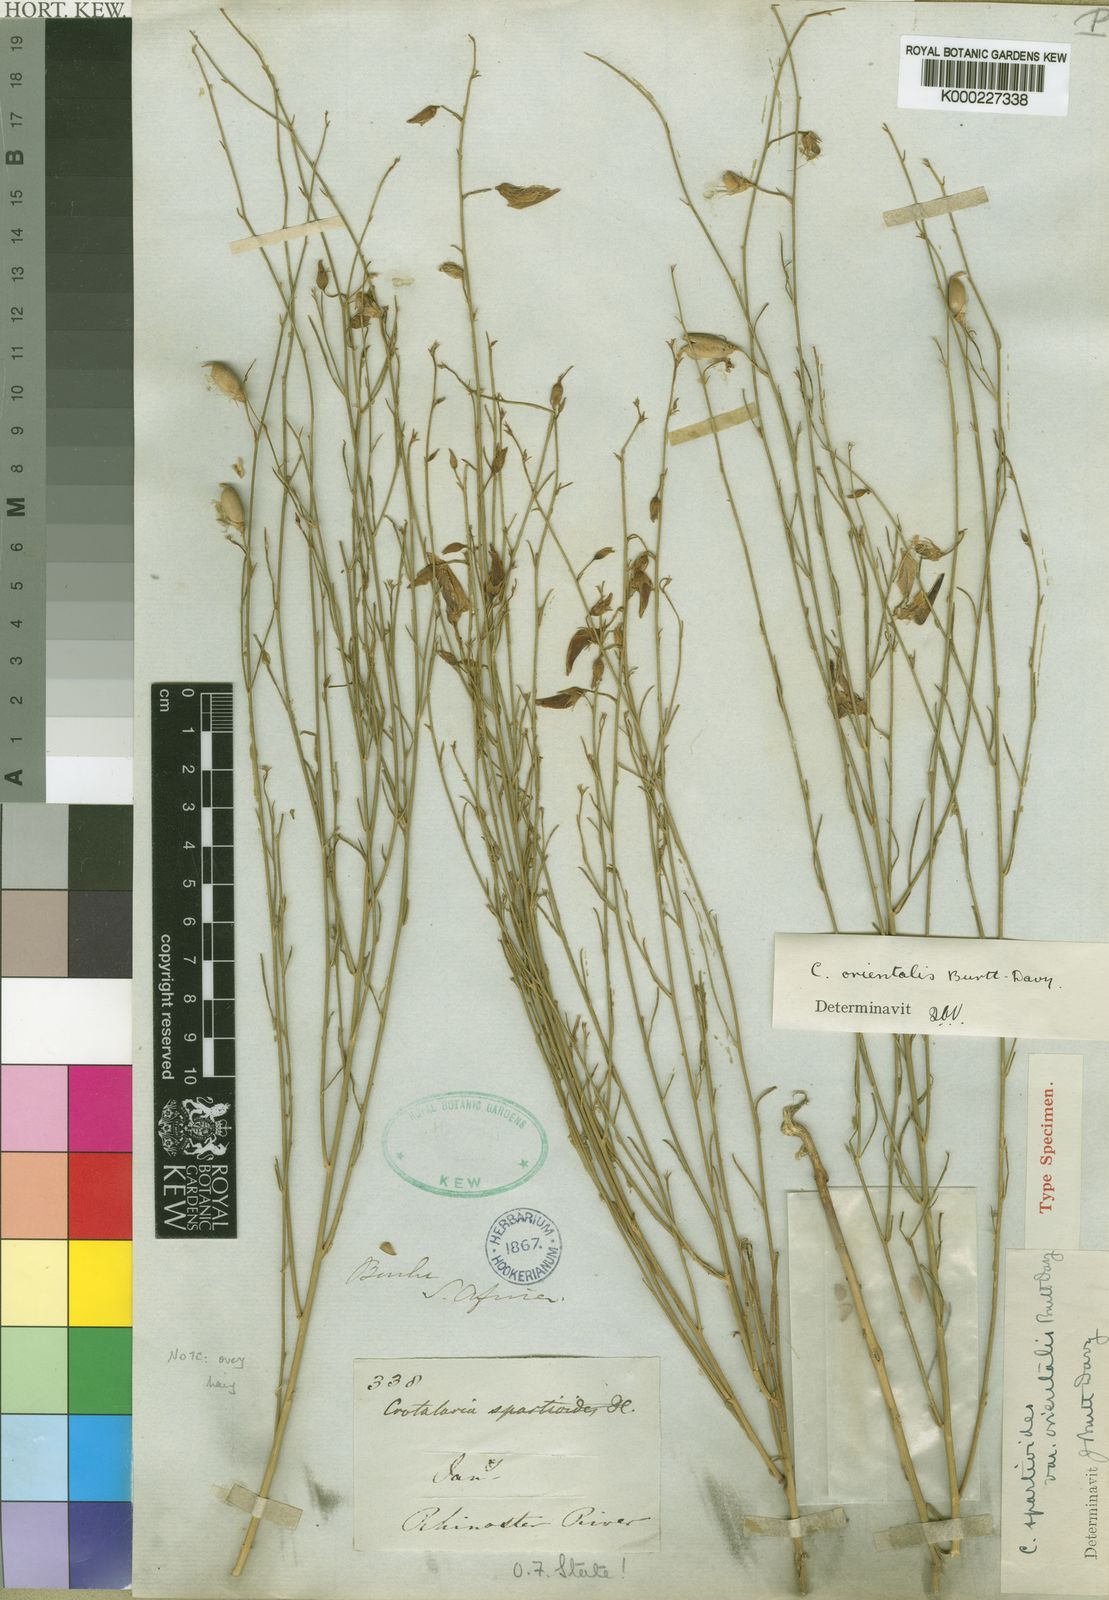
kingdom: Plantae
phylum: Tracheophyta
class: Magnoliopsida
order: Fabales
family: Fabaceae
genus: Crotalaria
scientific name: Crotalaria orientalis
